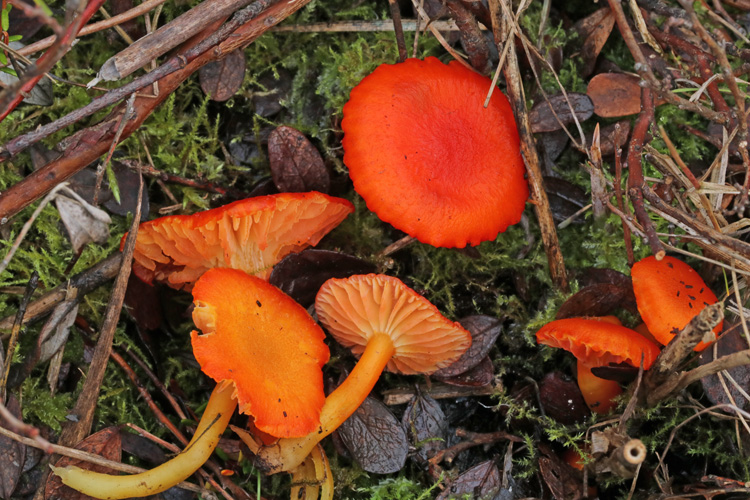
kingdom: Fungi
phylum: Basidiomycota
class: Agaricomycetes
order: Agaricales
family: Hygrophoraceae
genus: Hygrocybe
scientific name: Hygrocybe substrangulata
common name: kær-vokshat
